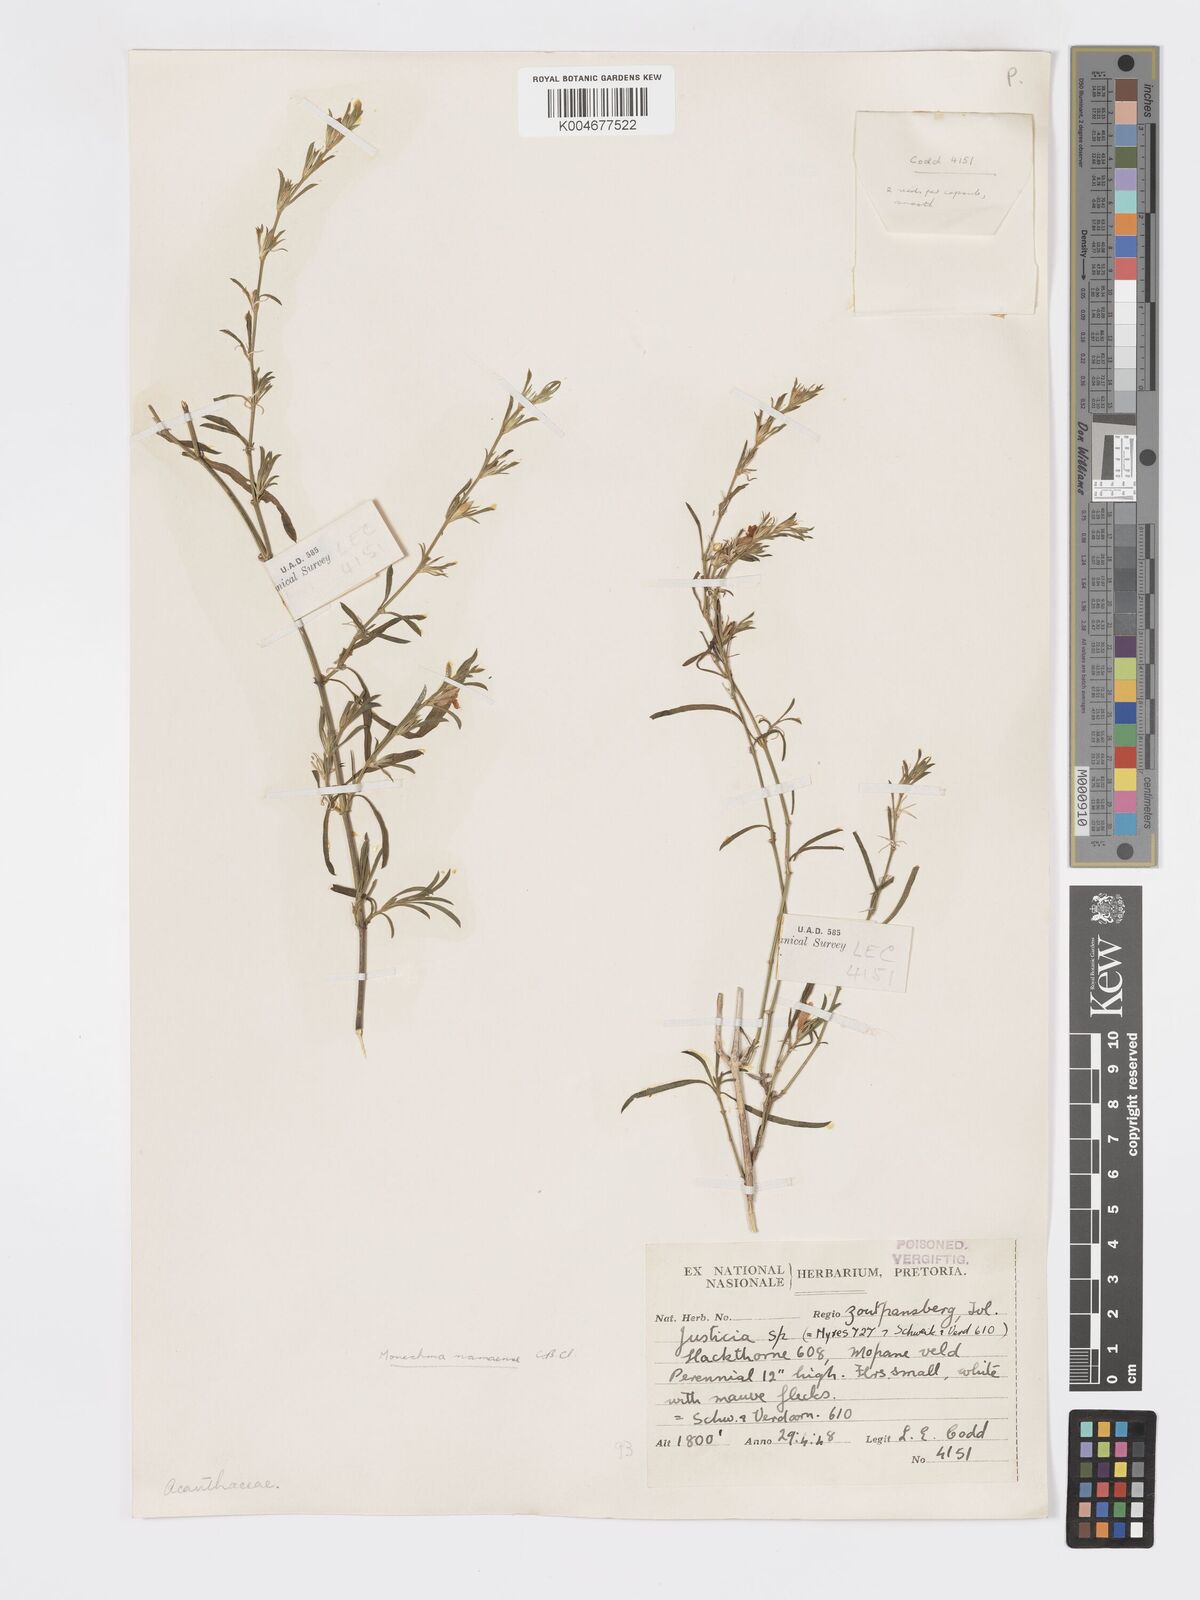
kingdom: Plantae
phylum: Tracheophyta
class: Magnoliopsida
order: Lamiales
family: Acanthaceae
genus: Pogonospermum
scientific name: Pogonospermum
